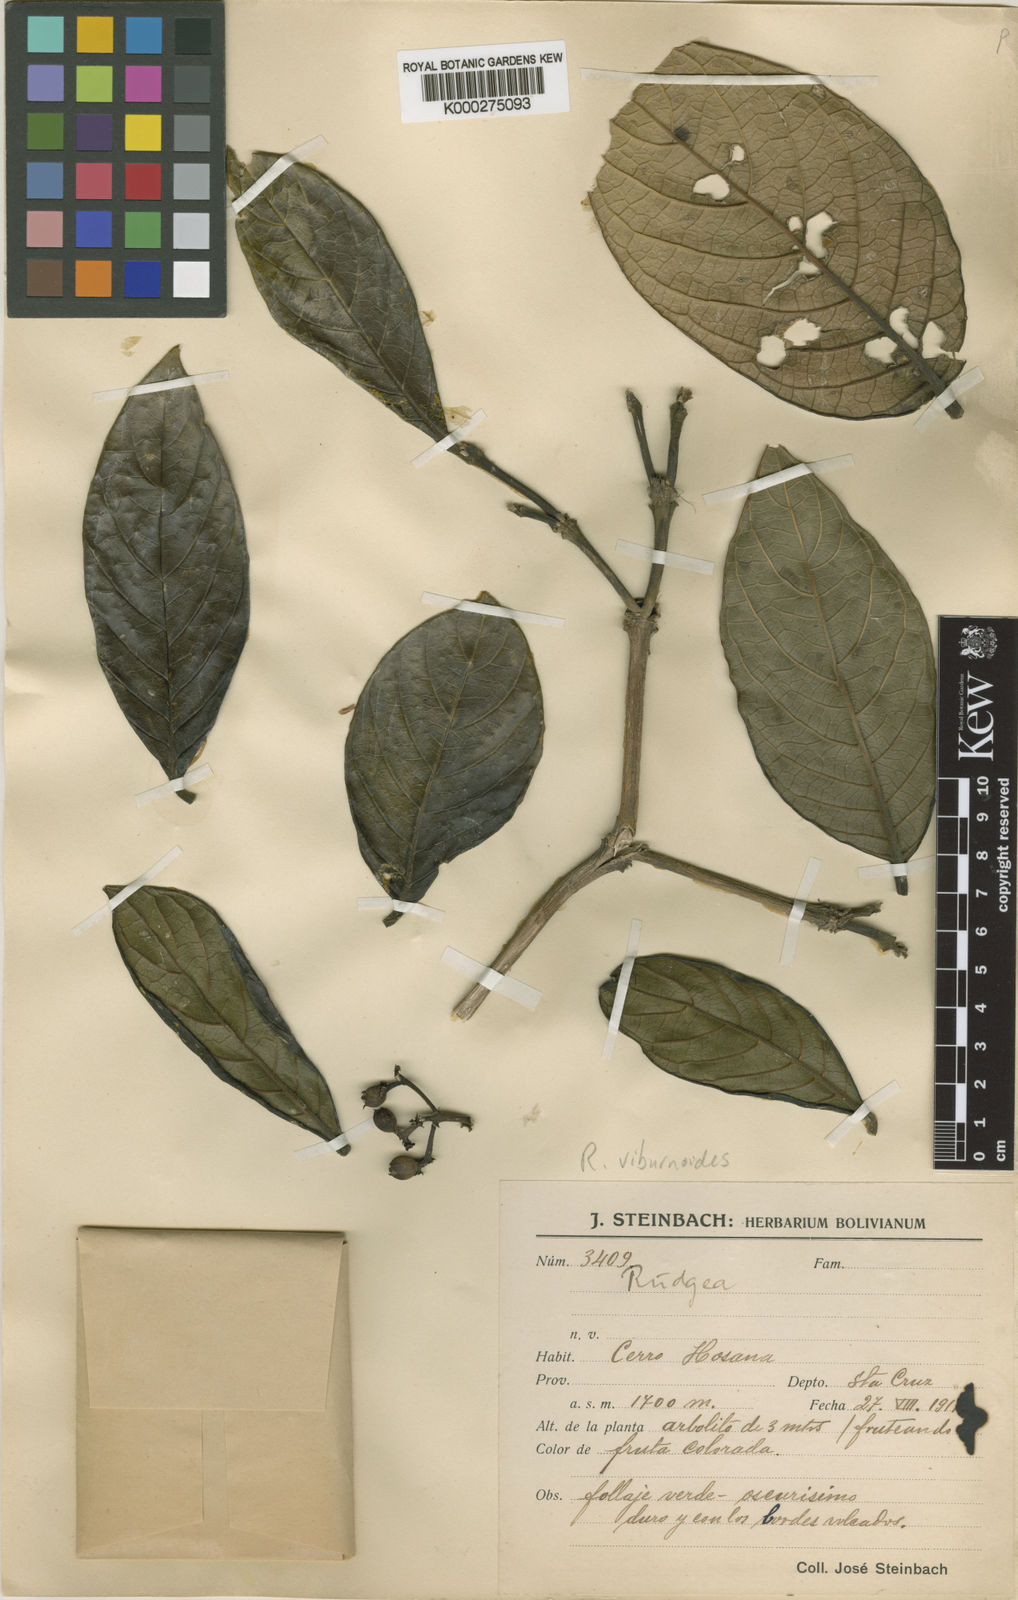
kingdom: Plantae
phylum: Tracheophyta
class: Magnoliopsida
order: Gentianales
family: Rubiaceae
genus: Rudgea
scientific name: Rudgea viburnoides
